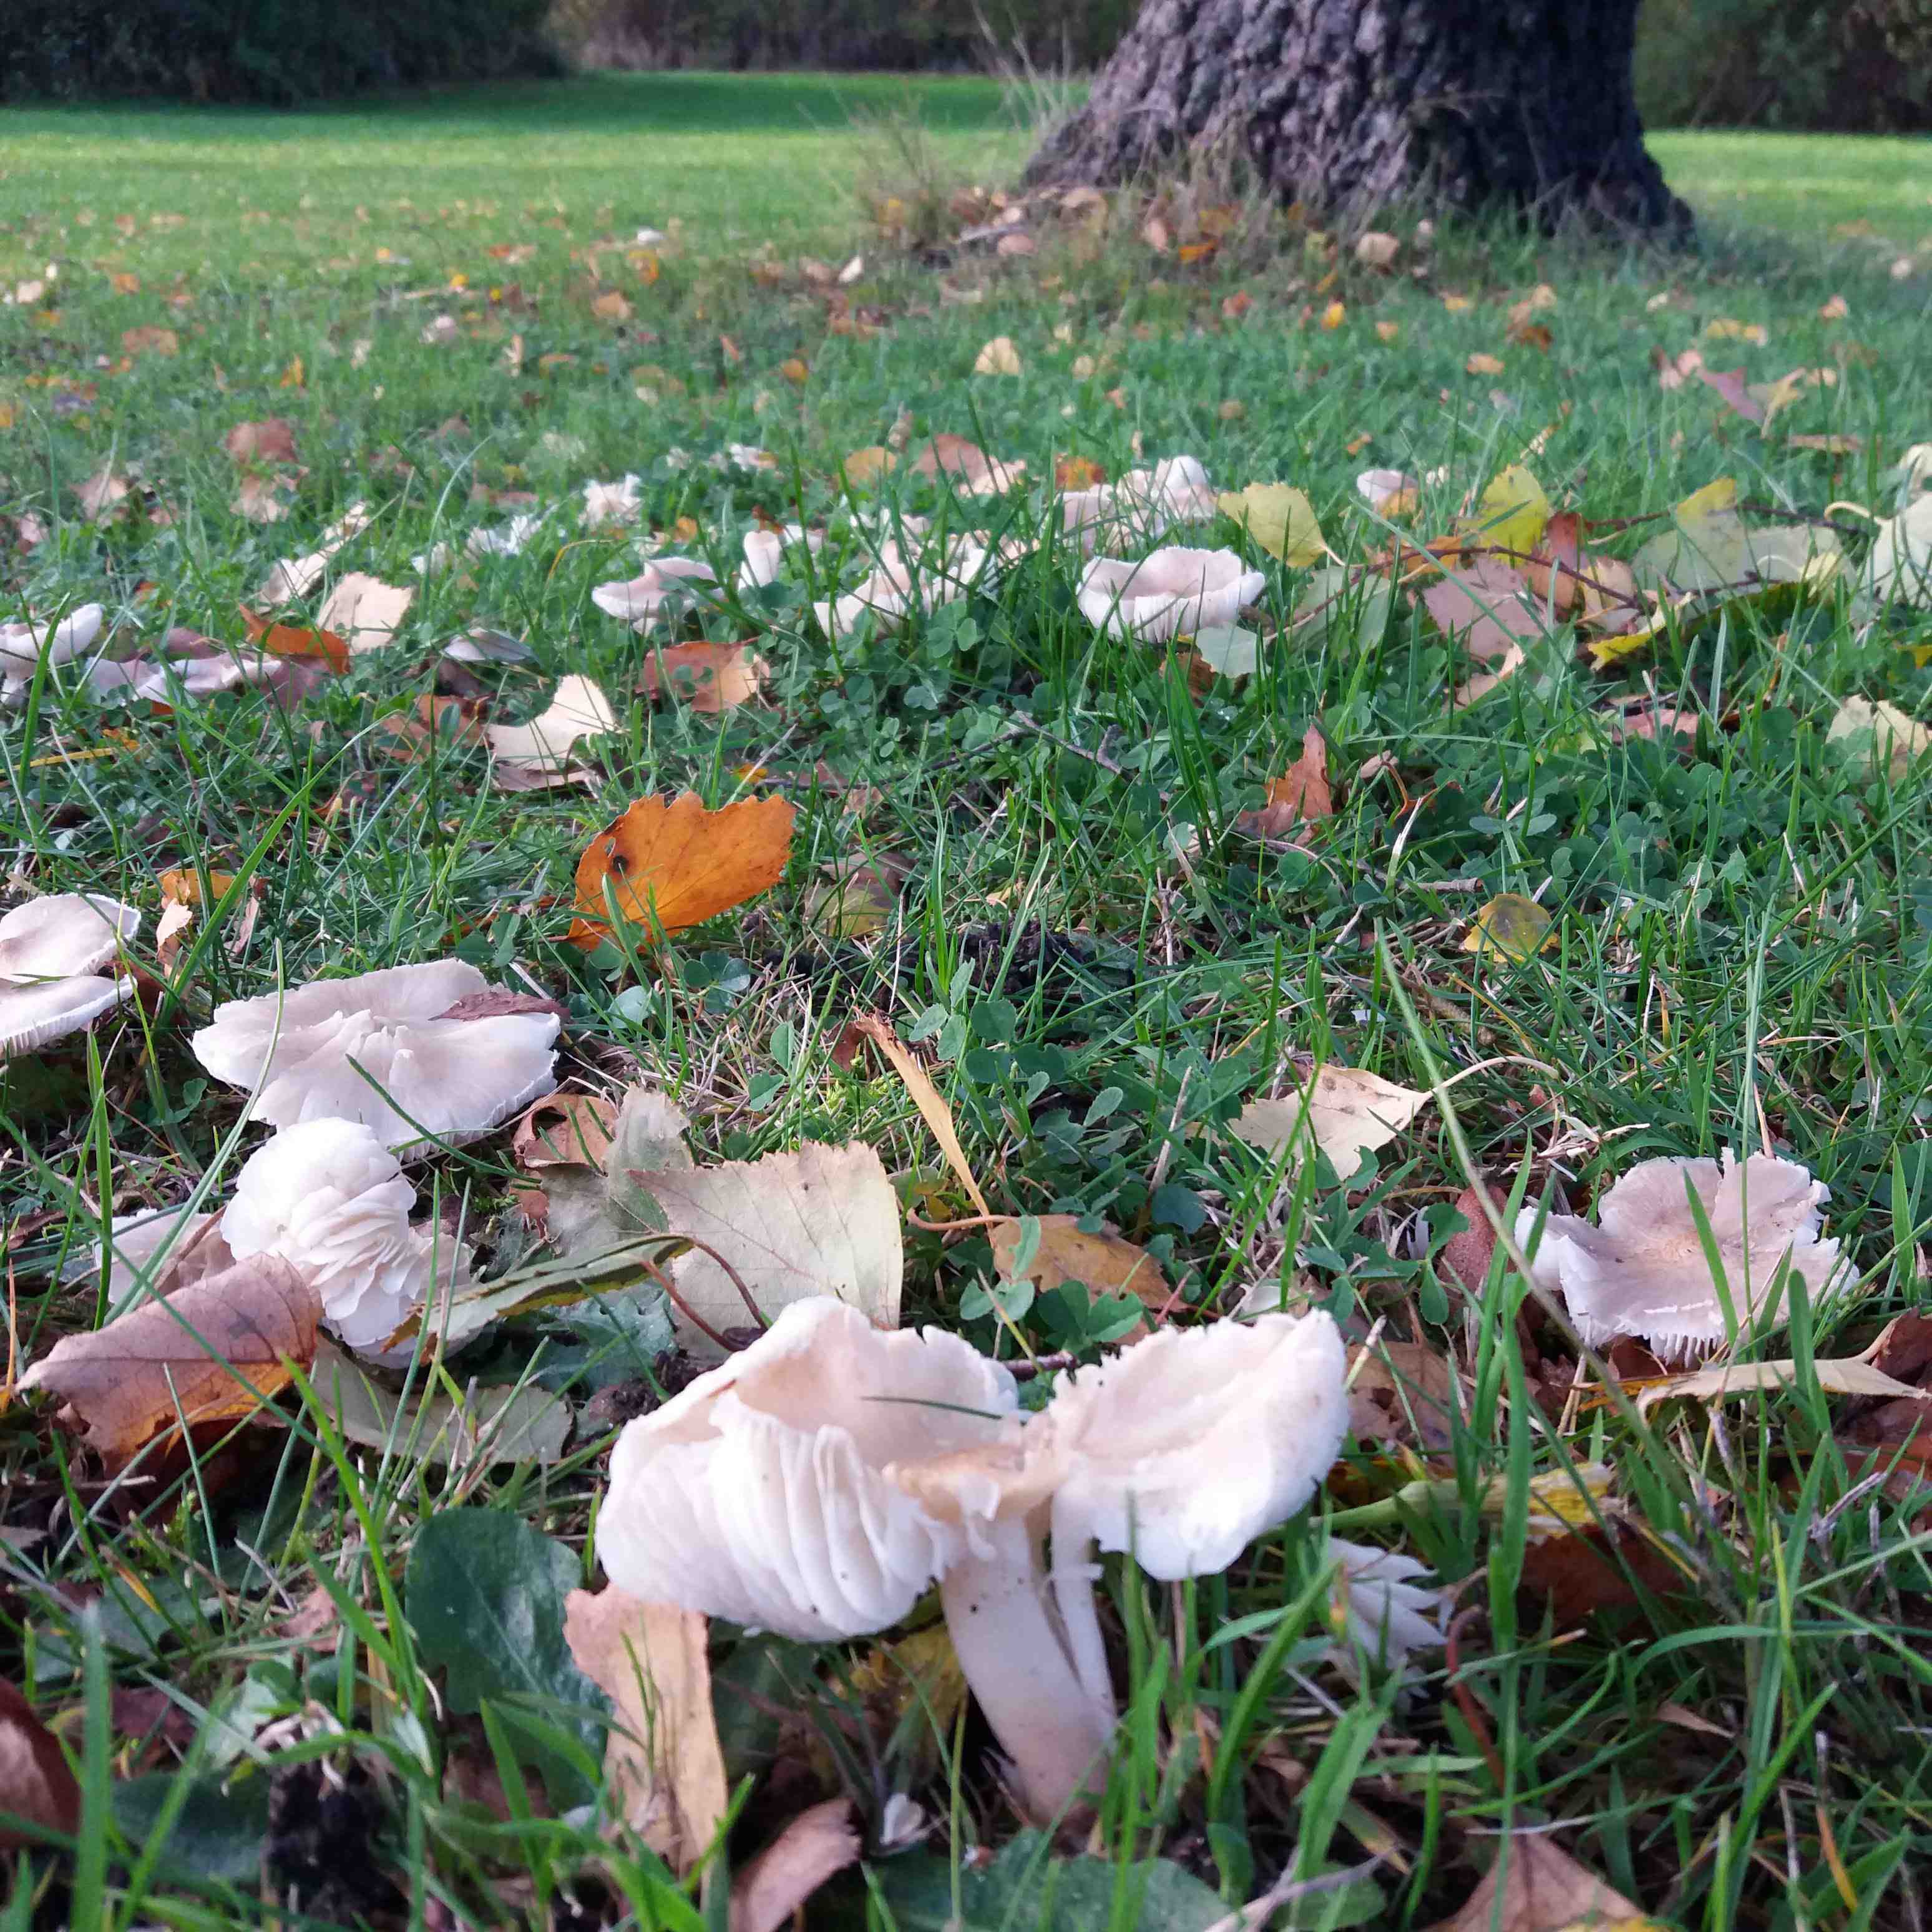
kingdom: Fungi
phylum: Basidiomycota
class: Agaricomycetes
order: Agaricales
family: Tricholomataceae
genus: Tricholoma
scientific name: Tricholoma
